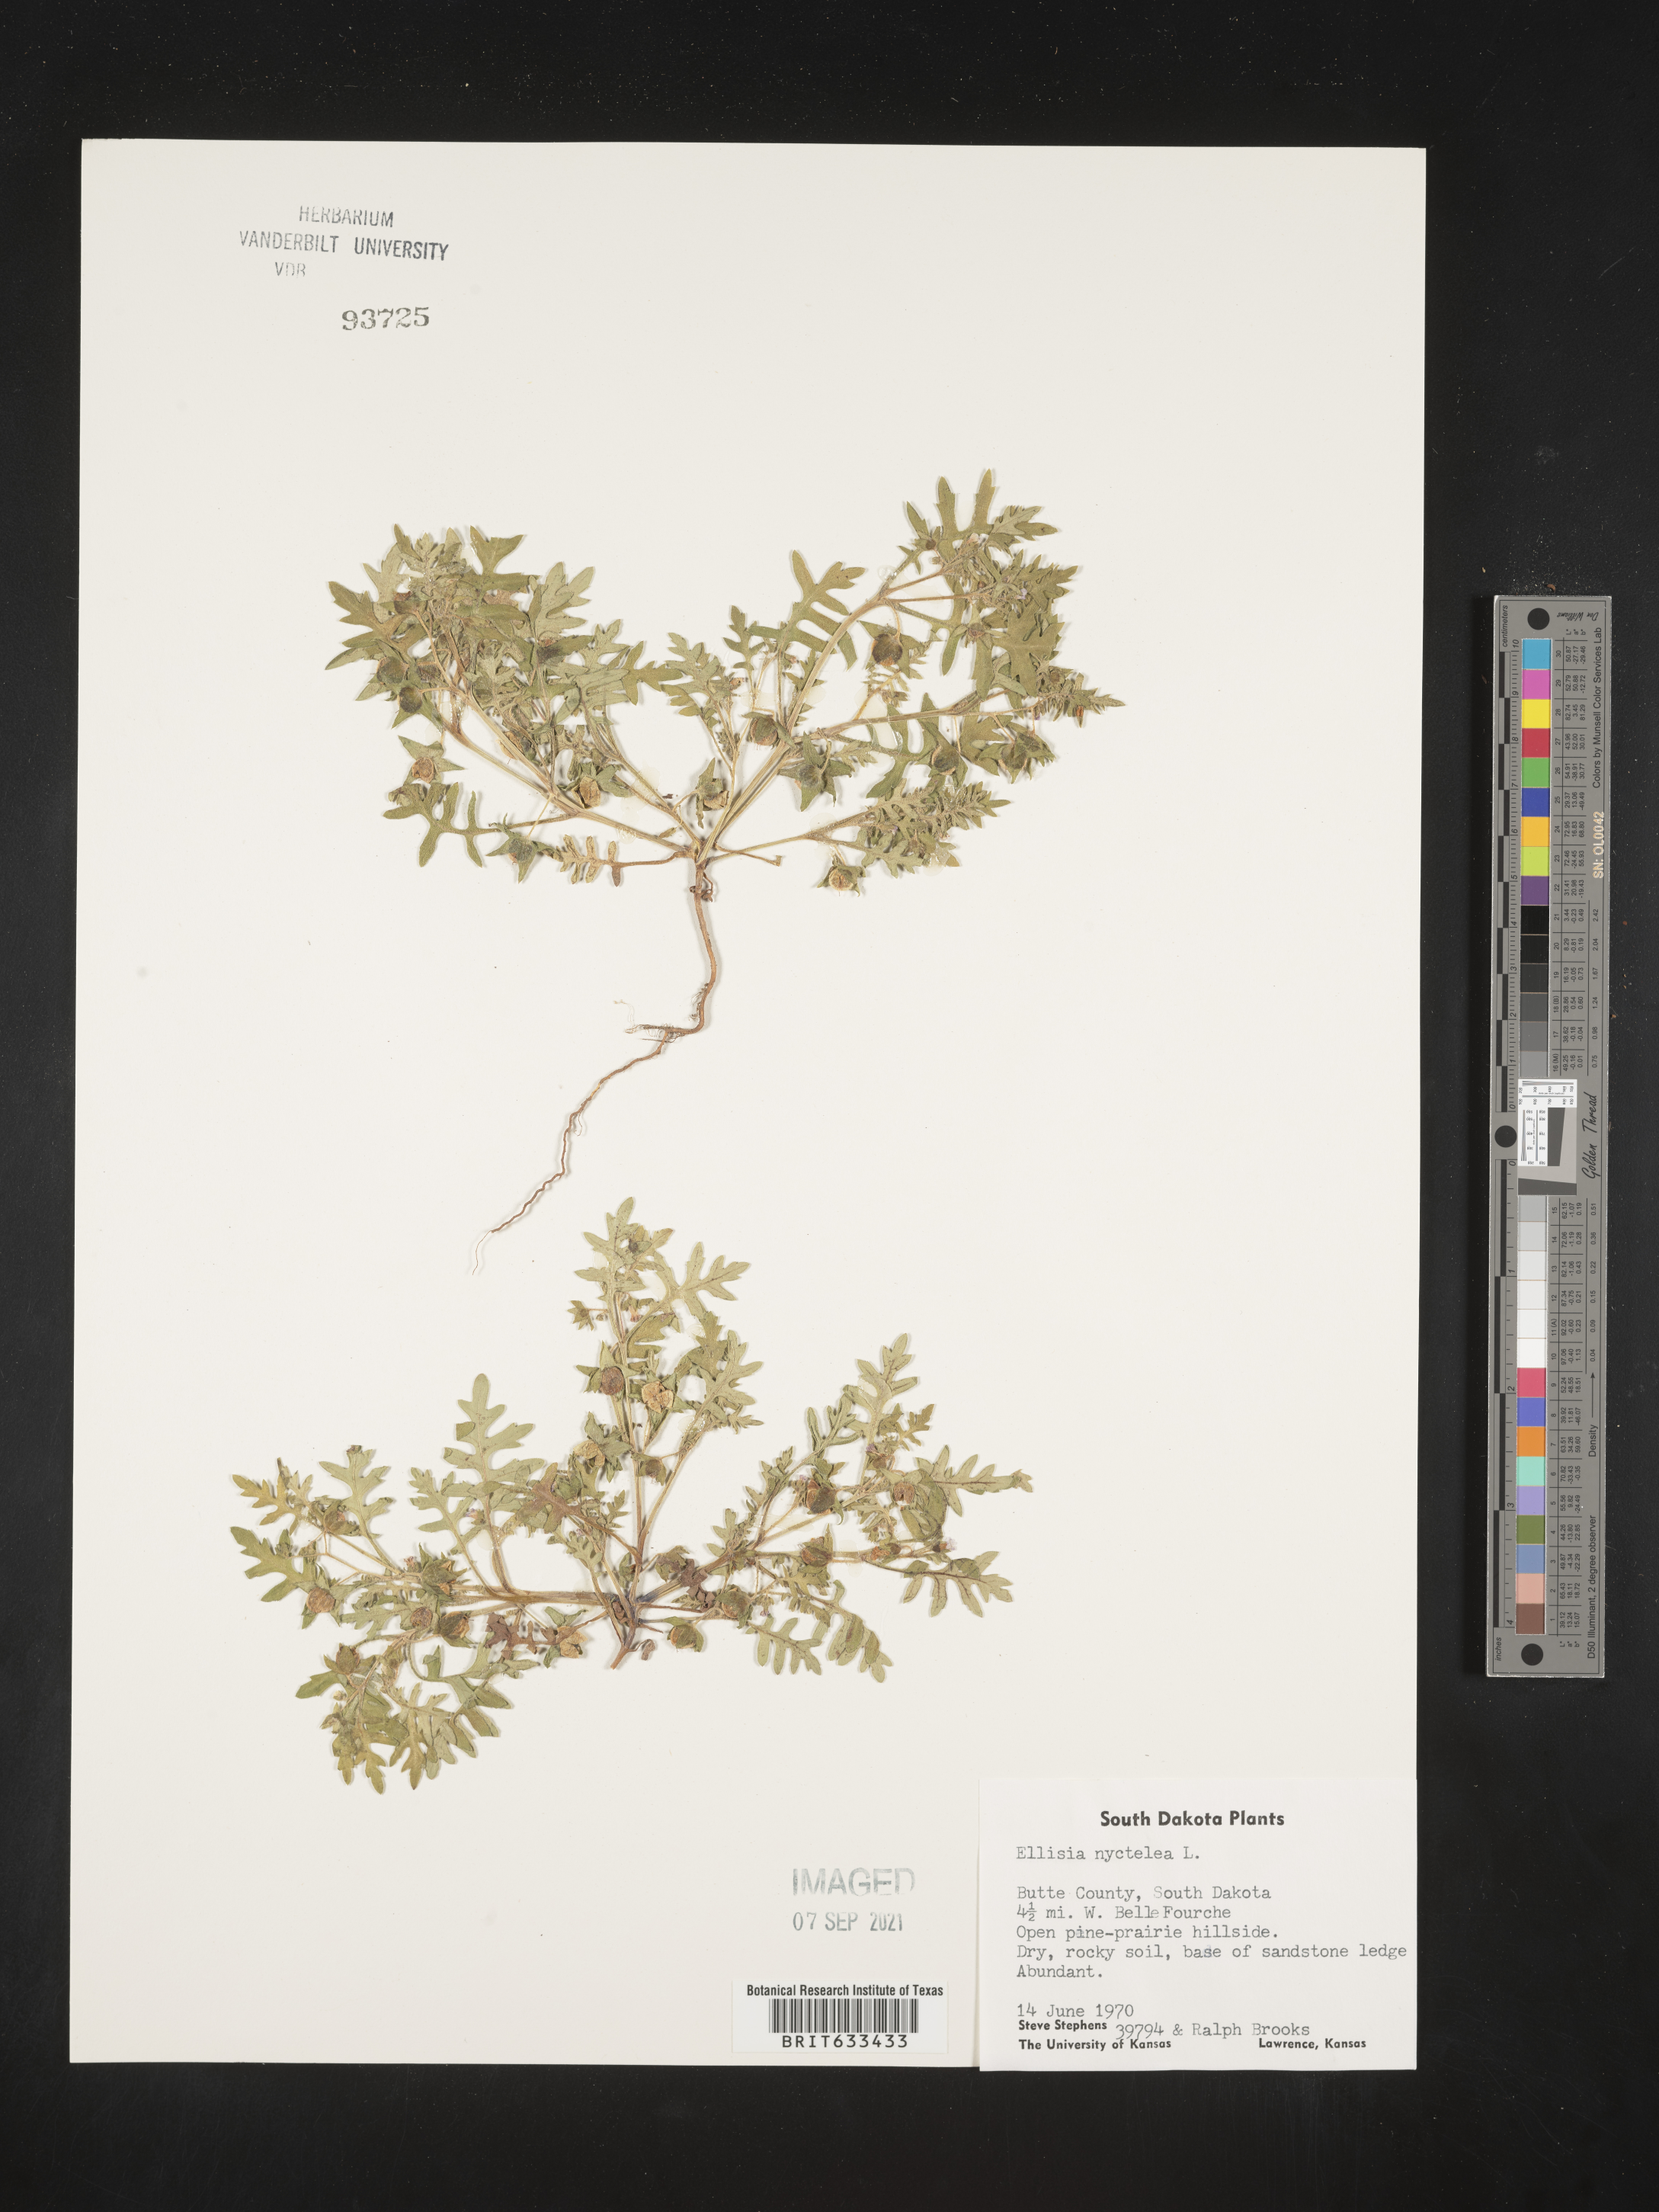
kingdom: Plantae
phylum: Tracheophyta
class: Magnoliopsida
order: Boraginales
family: Hydrophyllaceae
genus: Ellisia
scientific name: Ellisia nyctelea
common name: Aunt lucy
